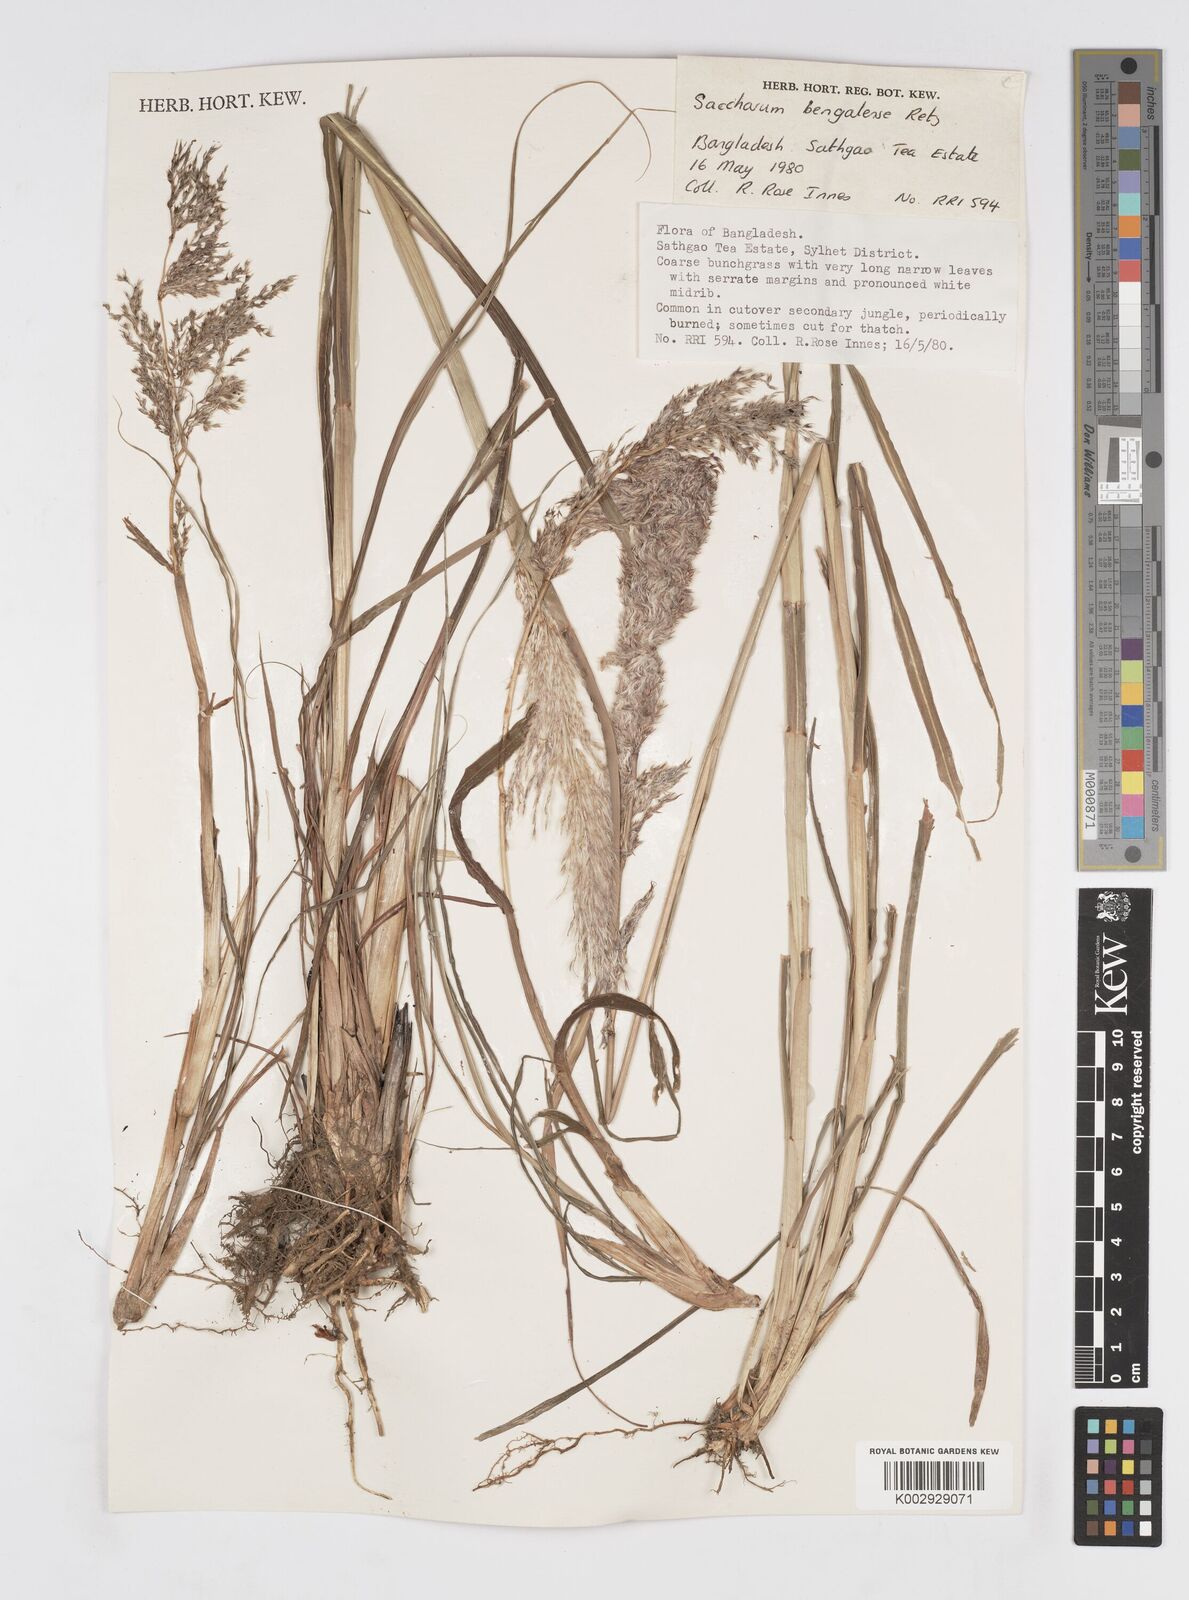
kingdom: Plantae
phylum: Tracheophyta
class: Liliopsida
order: Poales
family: Poaceae
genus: Tripidium
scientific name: Tripidium bengalense
